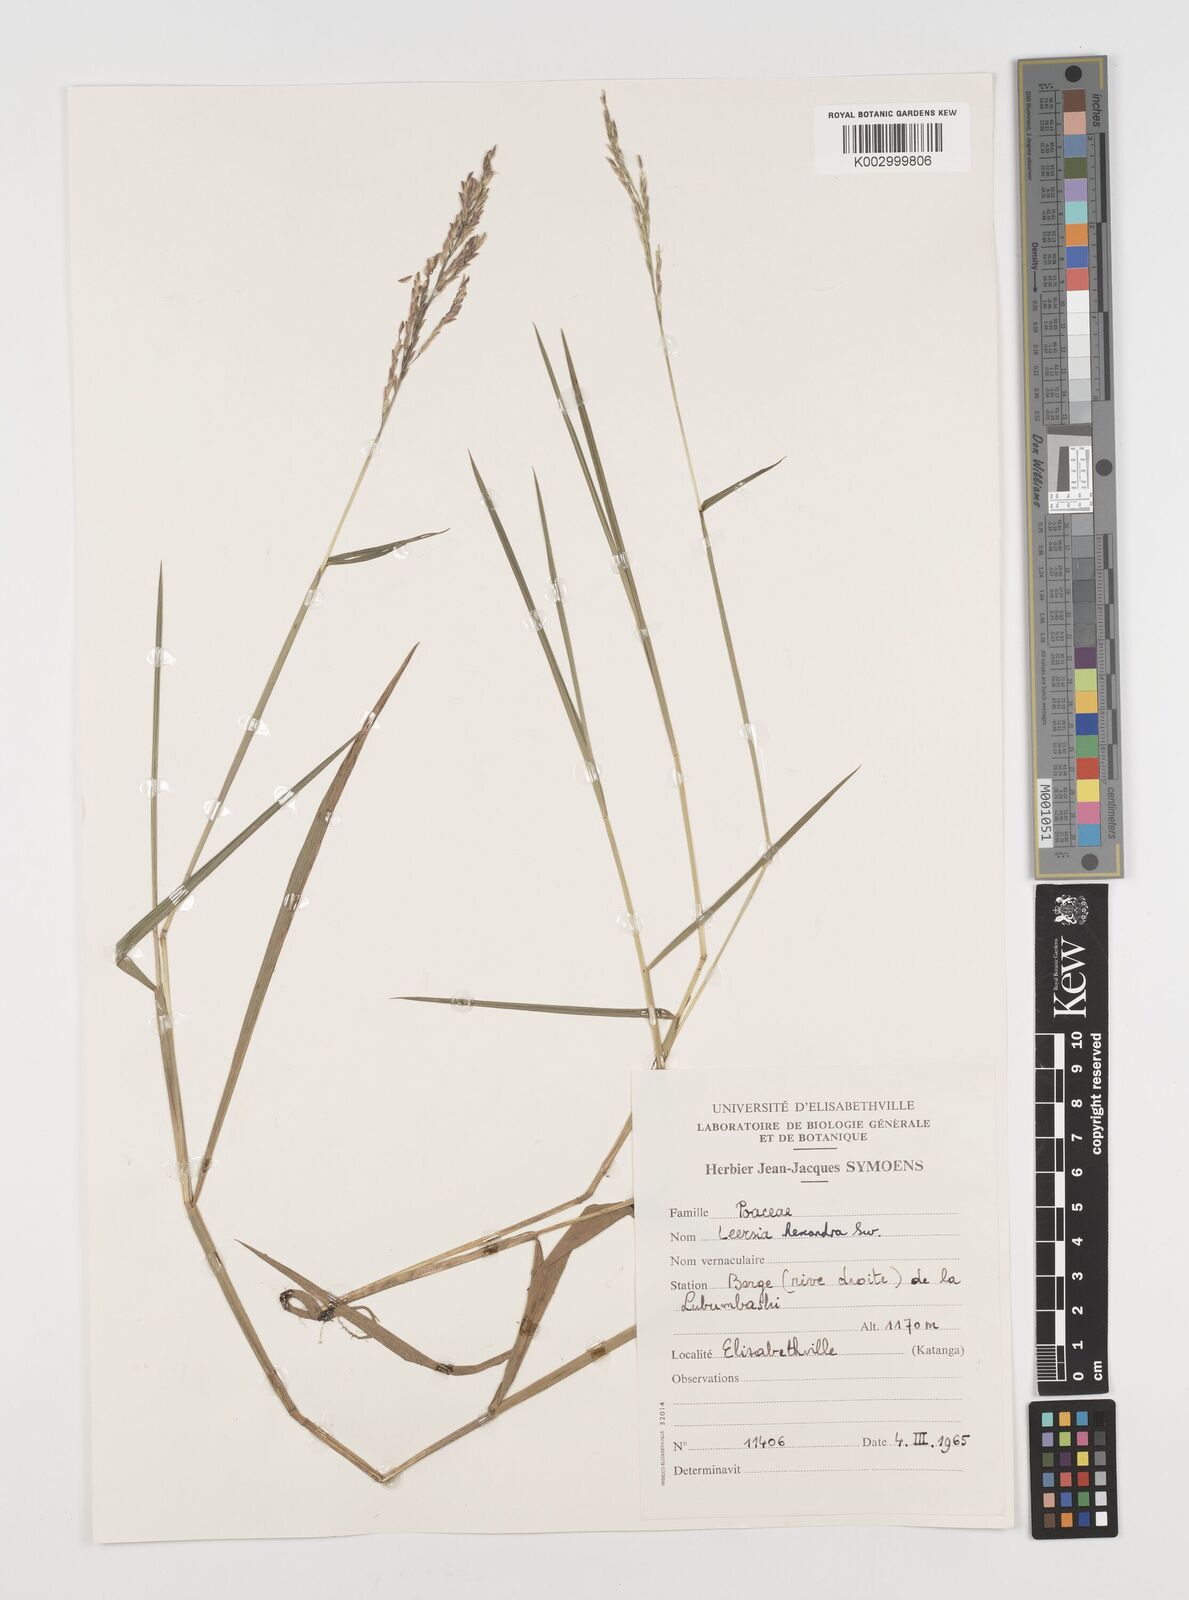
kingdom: Plantae
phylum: Tracheophyta
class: Liliopsida
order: Poales
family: Poaceae
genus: Leersia
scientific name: Leersia hexandra
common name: Southern cut grass
